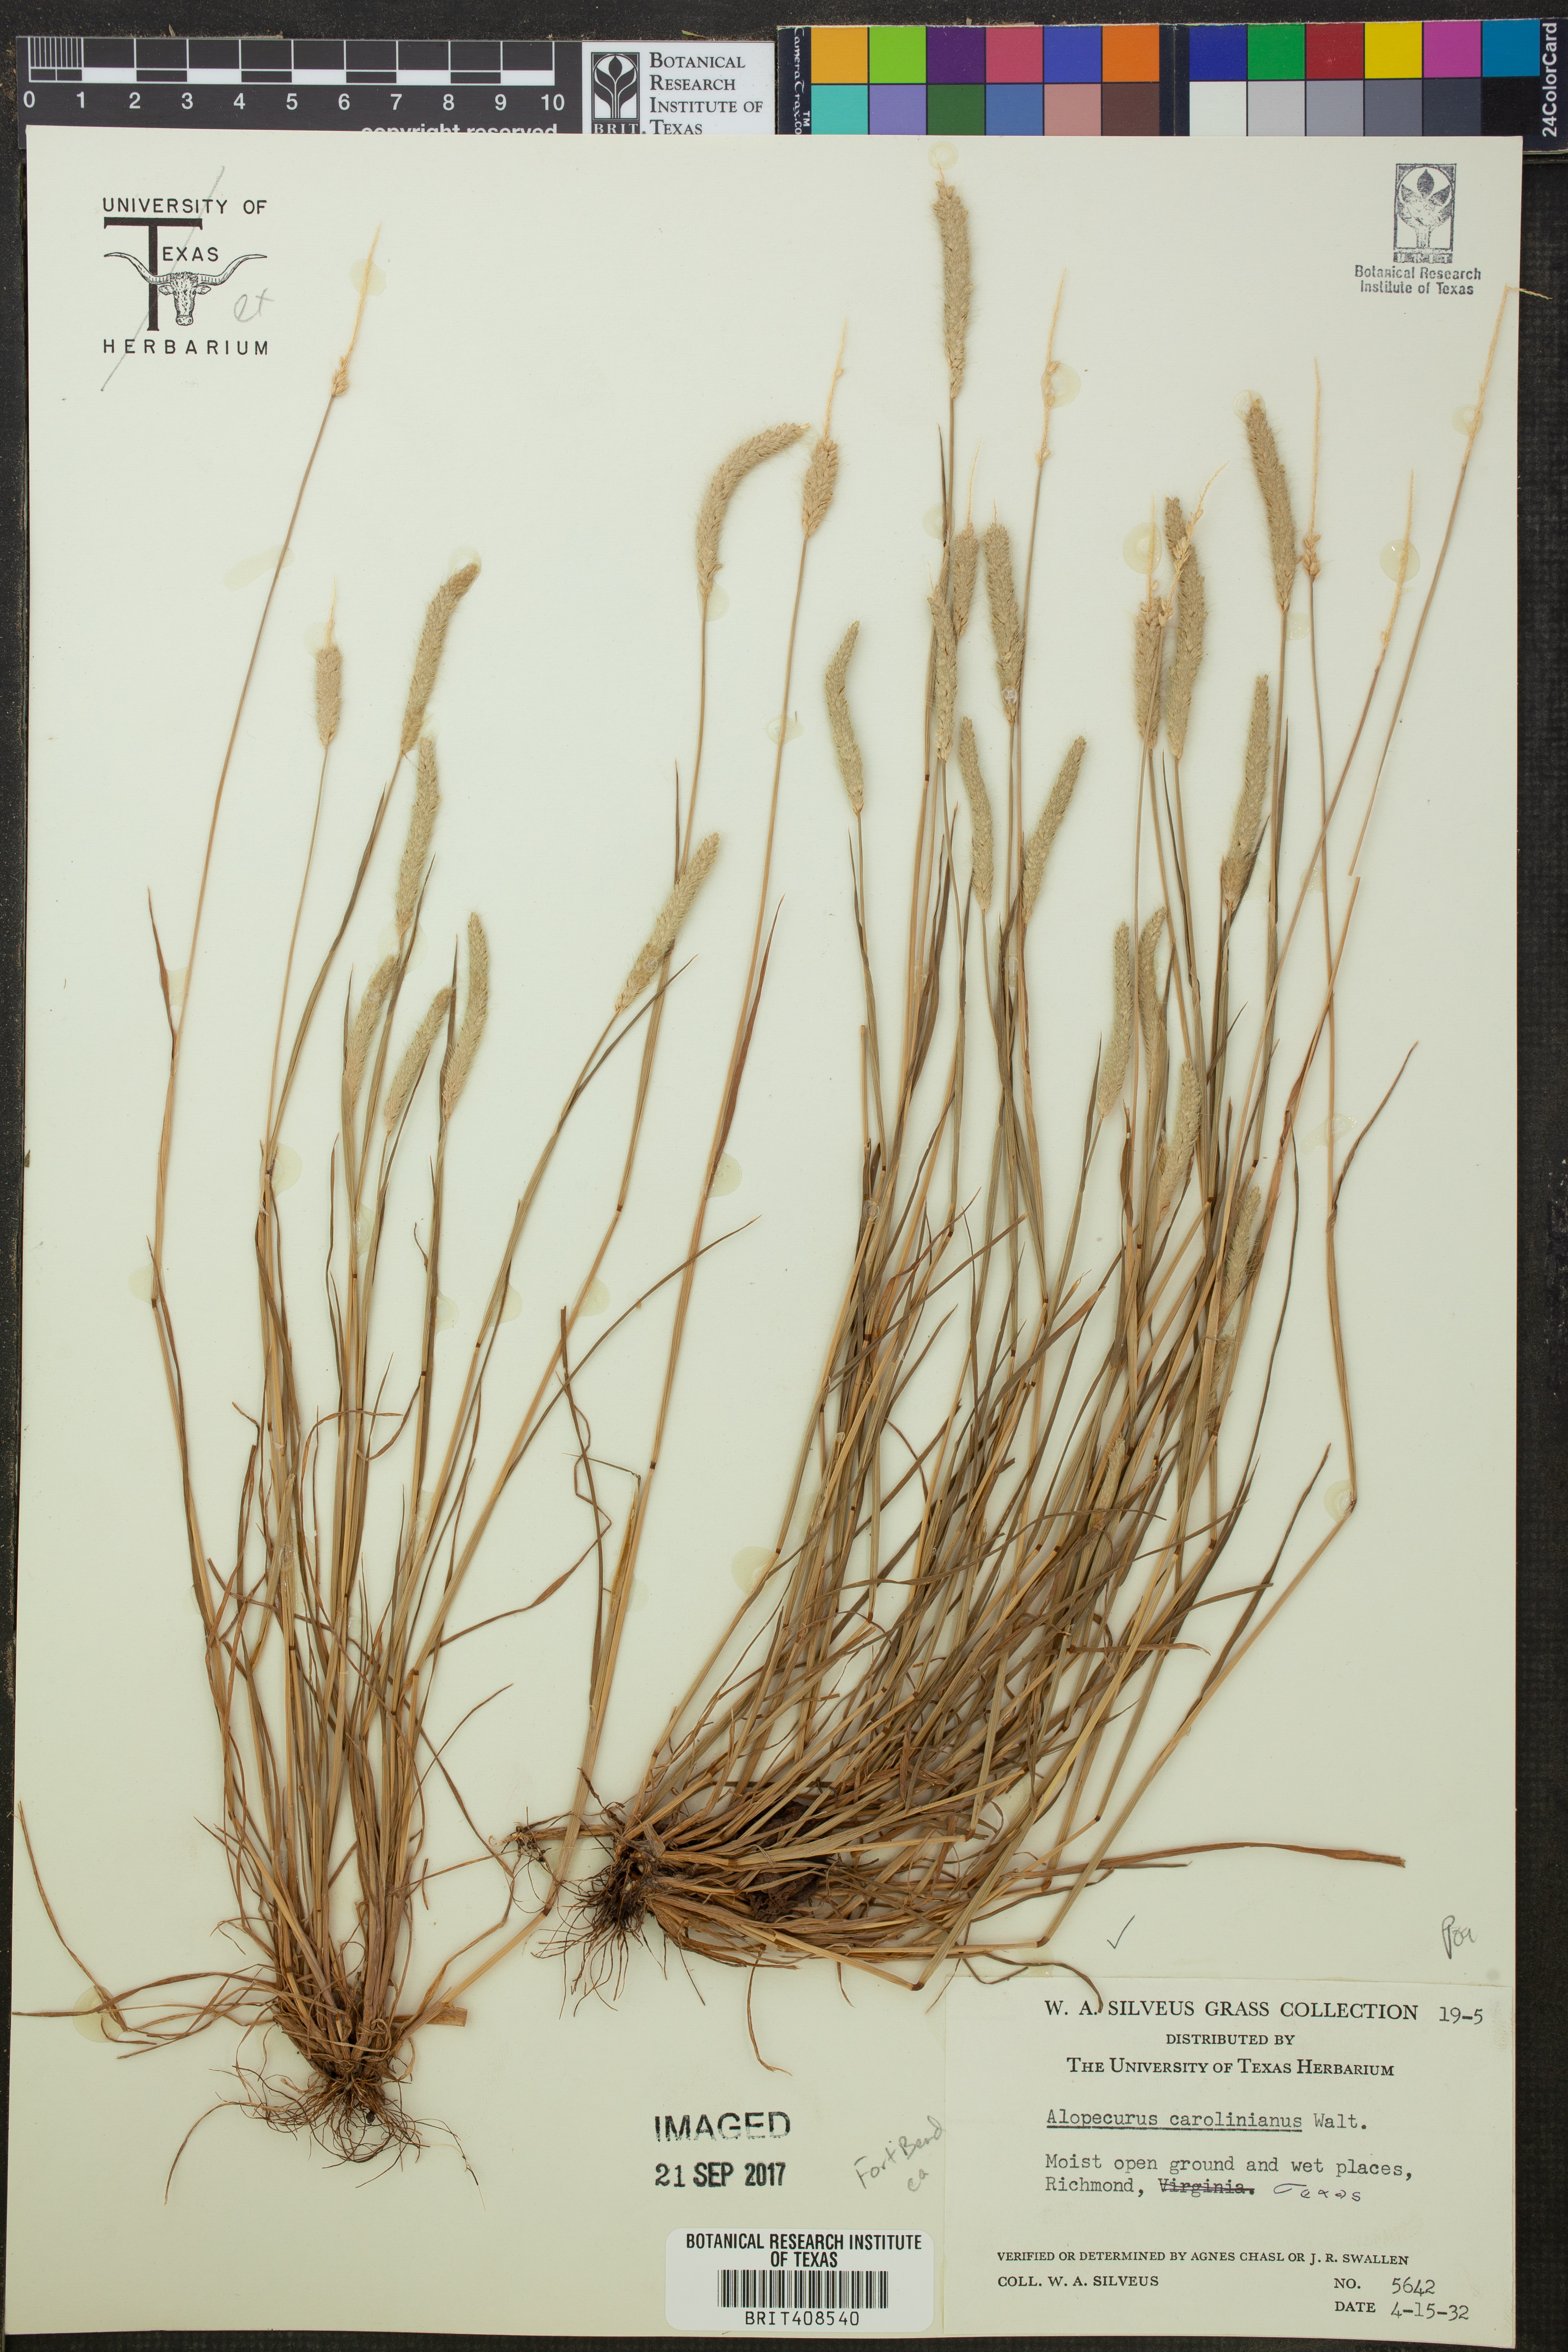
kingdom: Plantae
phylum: Tracheophyta
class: Liliopsida
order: Poales
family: Poaceae
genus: Alopecurus
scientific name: Alopecurus carolinianus
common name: Tufted foxtail
